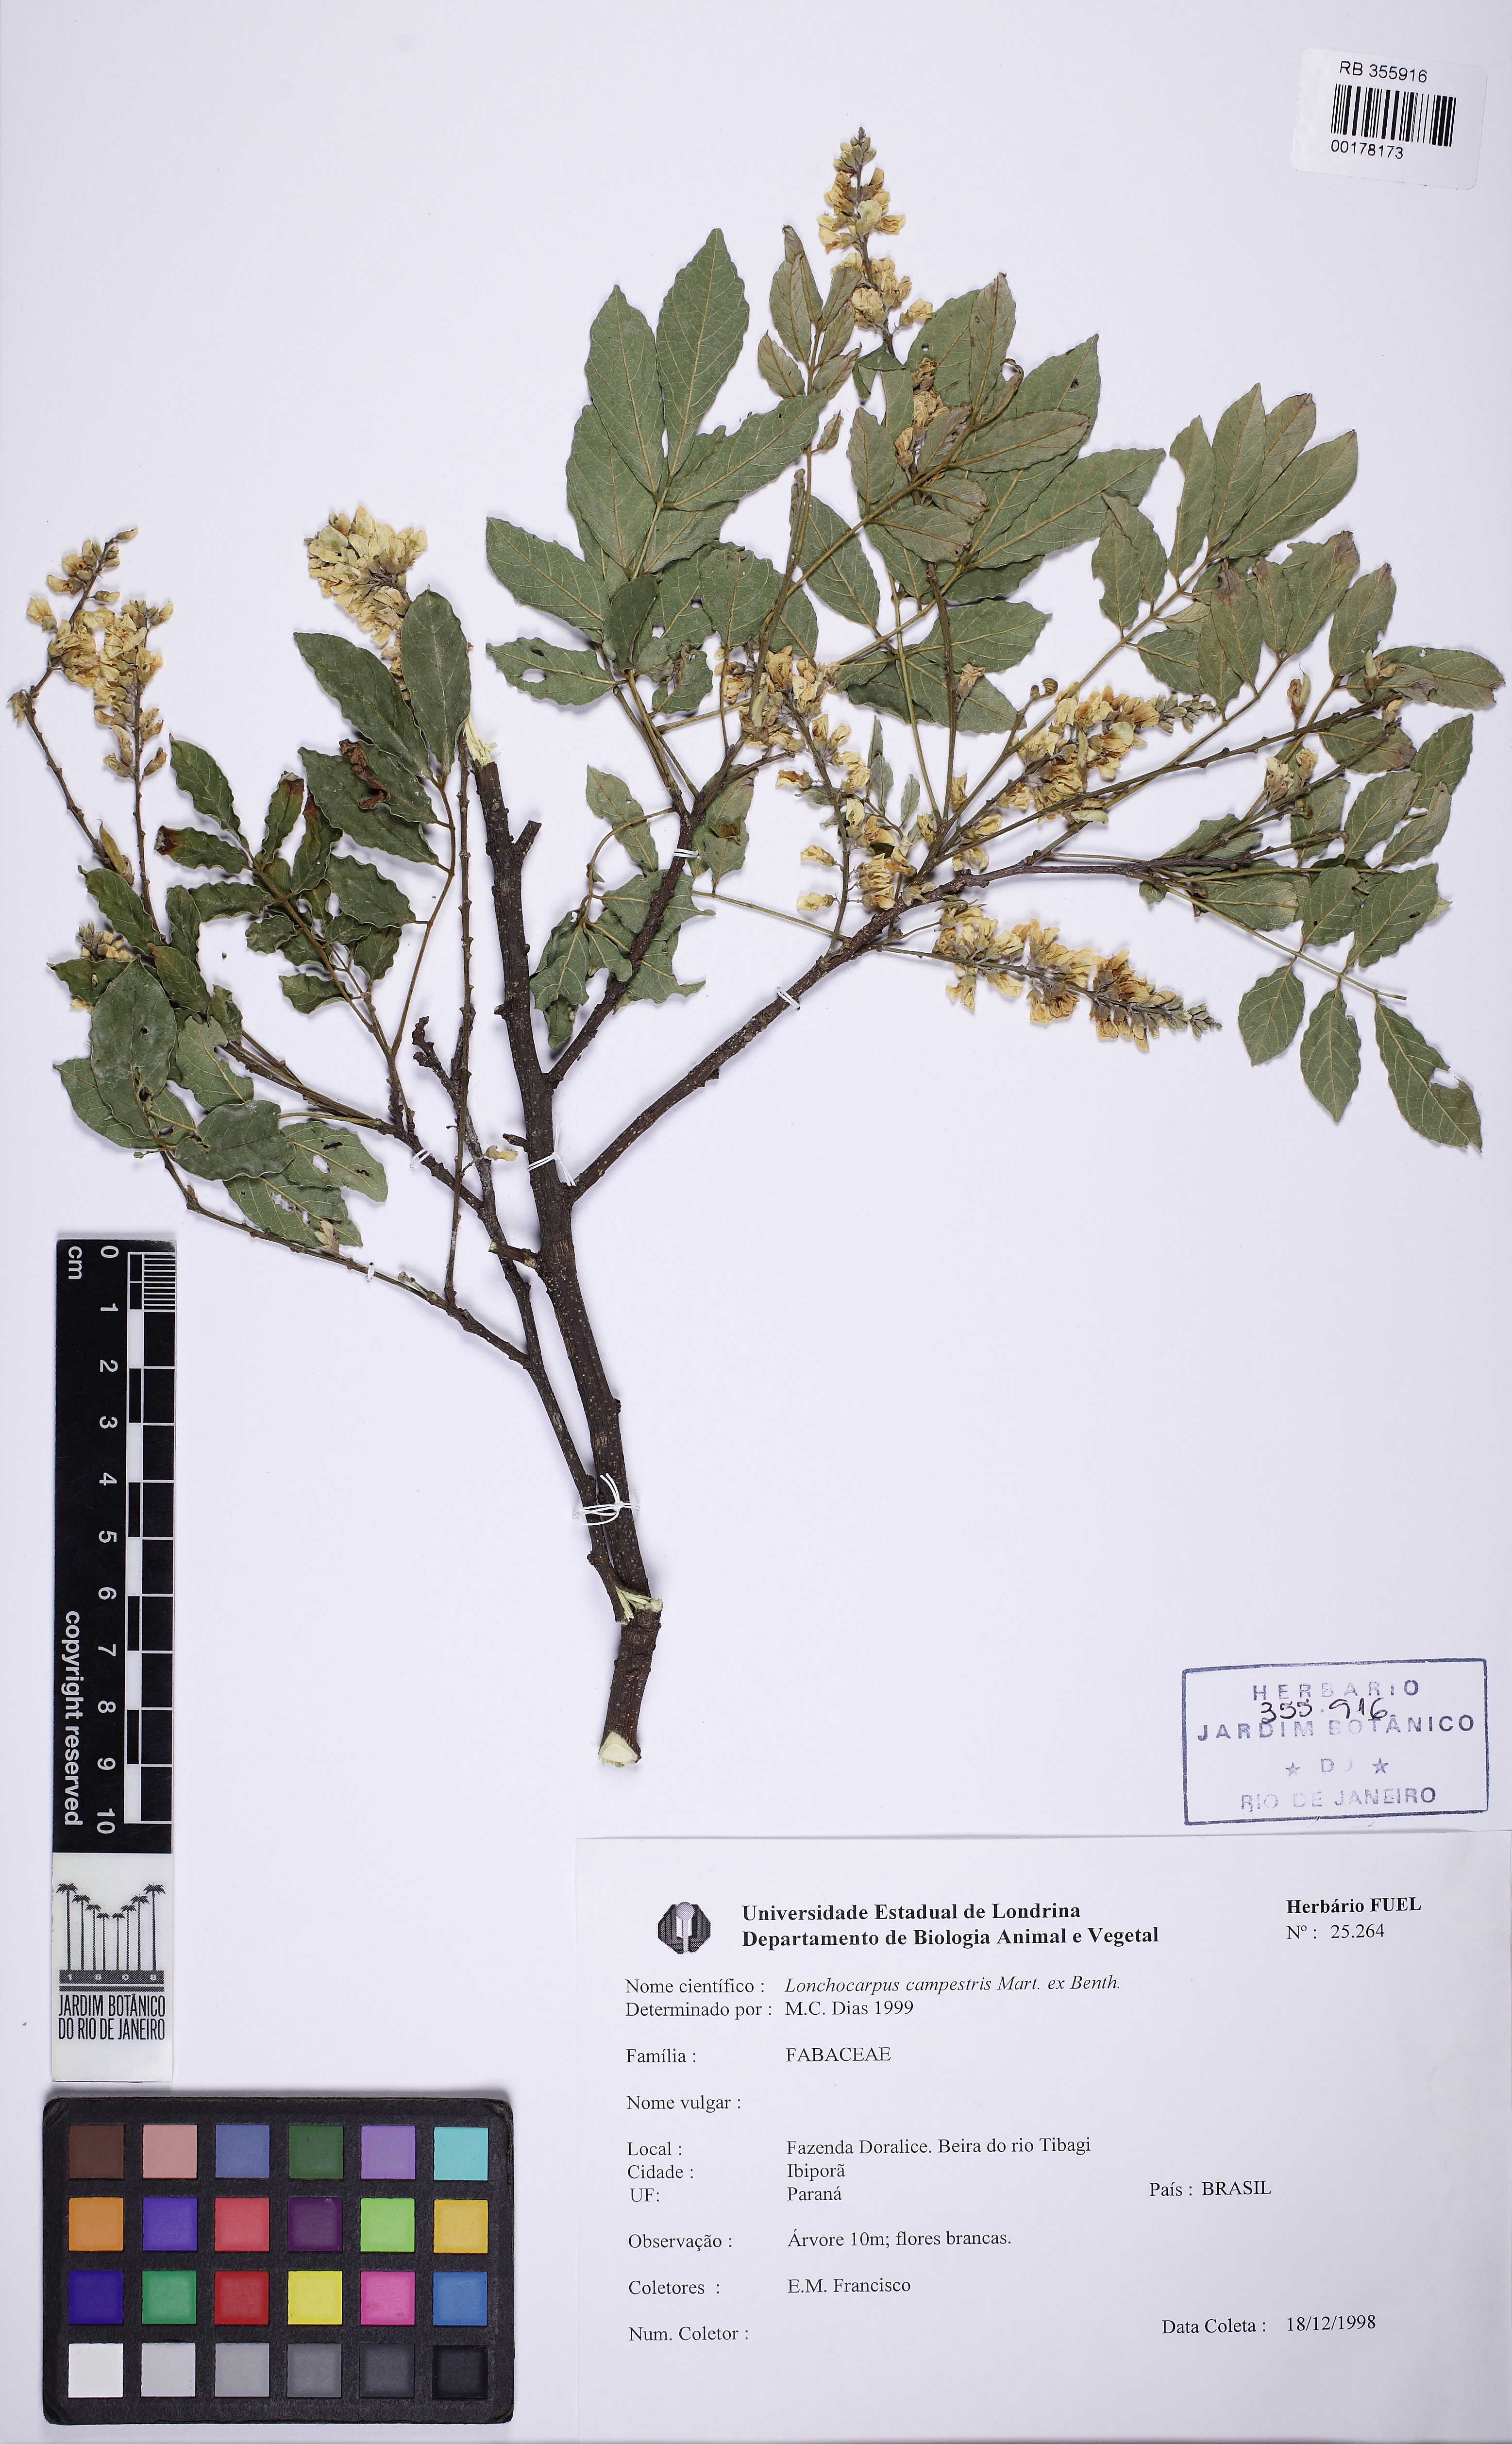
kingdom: Plantae
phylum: Tracheophyta
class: Magnoliopsida
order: Fabales
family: Fabaceae
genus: Muellera
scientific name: Muellera campestris
